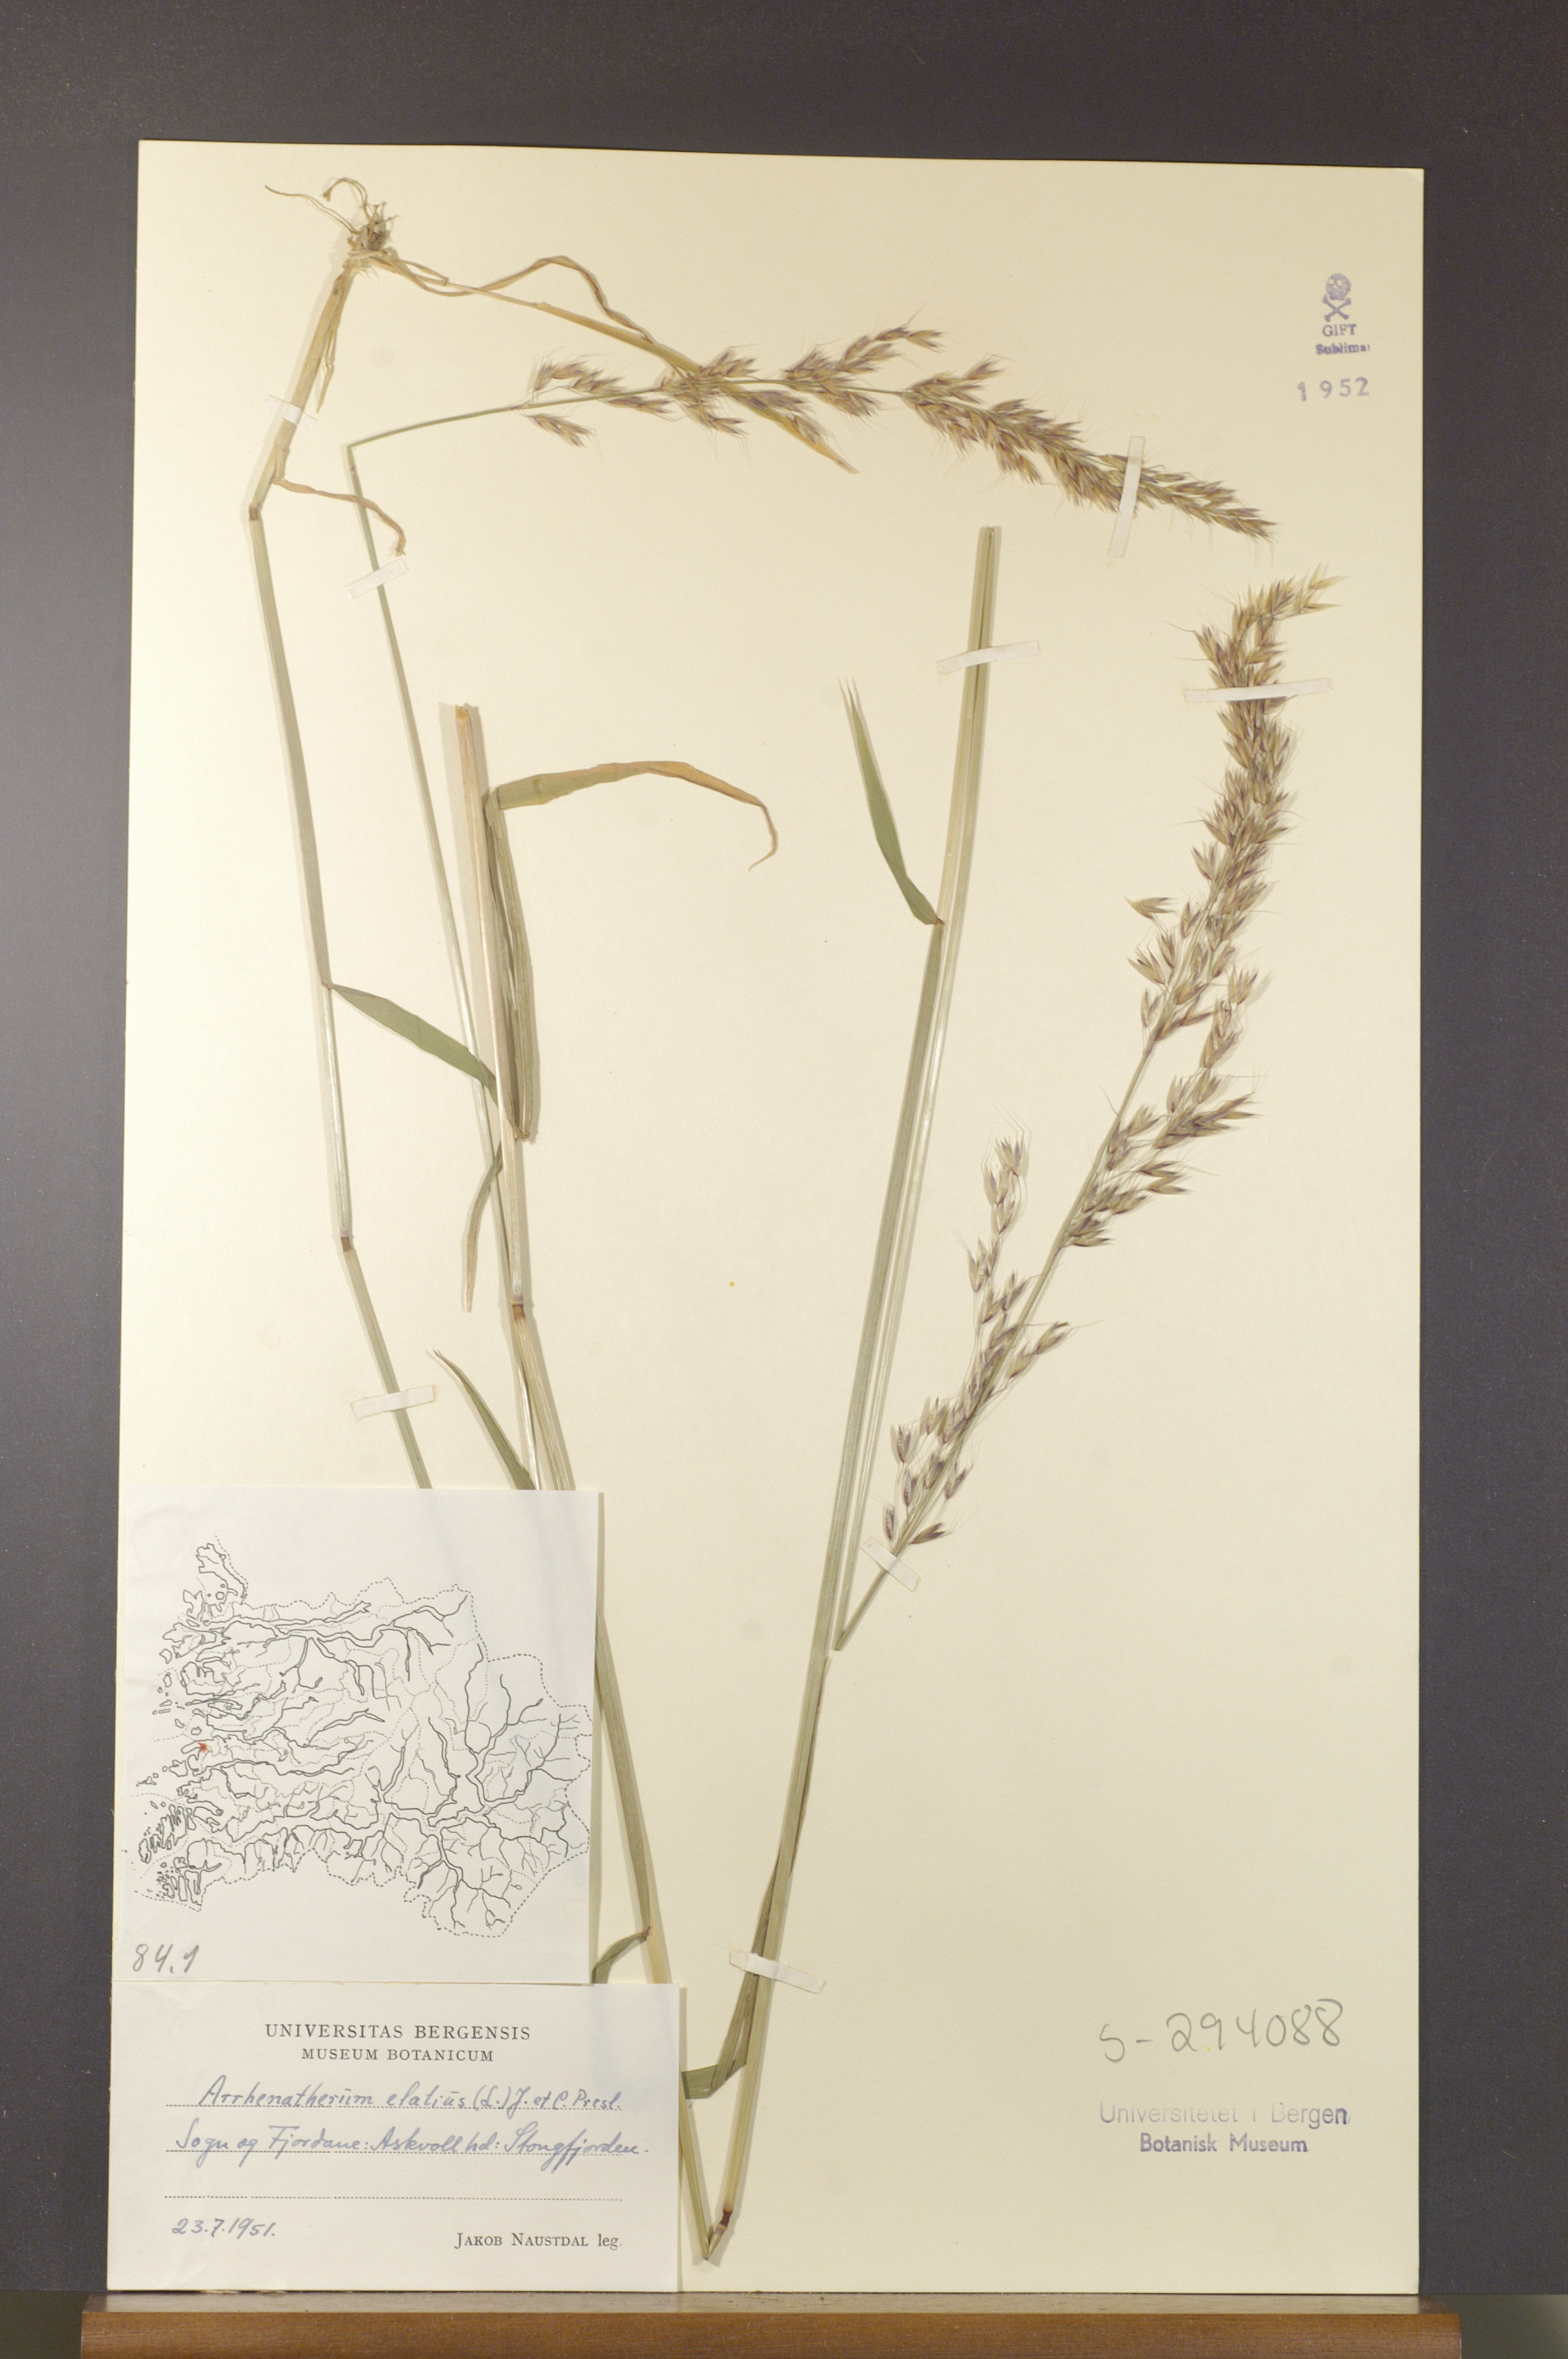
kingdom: Plantae
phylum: Tracheophyta
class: Liliopsida
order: Poales
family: Poaceae
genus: Arrhenatherum
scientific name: Arrhenatherum elatius
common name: Tall oatgrass
